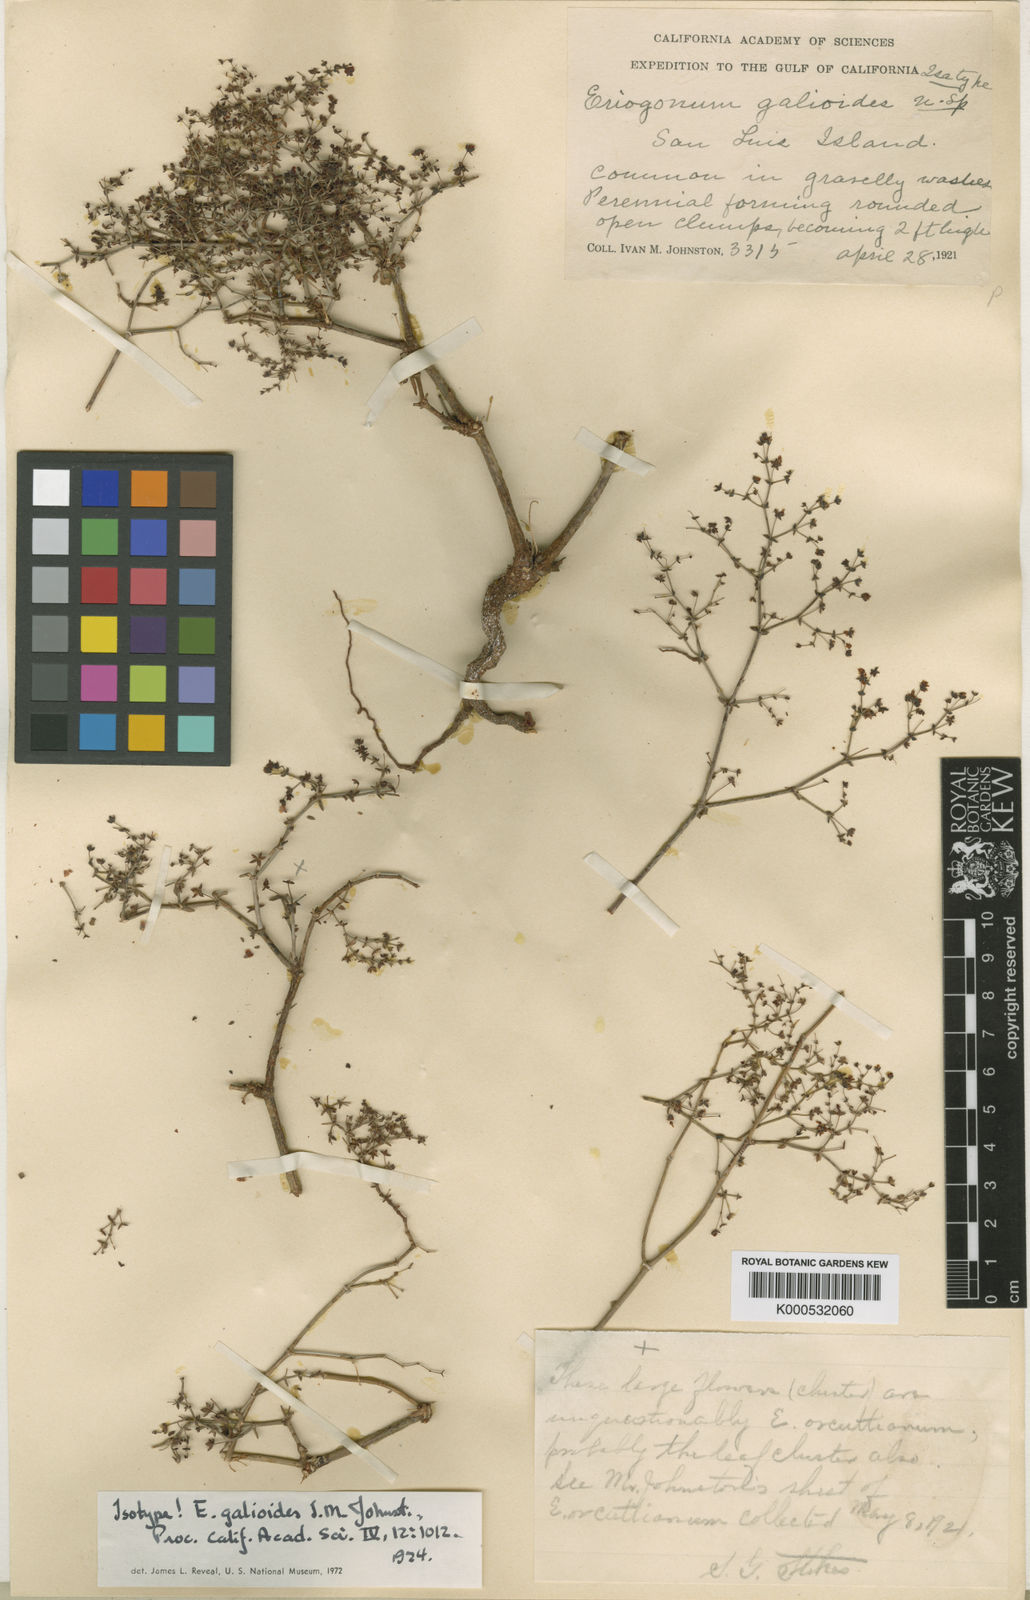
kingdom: Plantae
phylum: Tracheophyta
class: Magnoliopsida
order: Caryophyllales
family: Polygonaceae
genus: Eriogonum
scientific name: Eriogonum galioides
